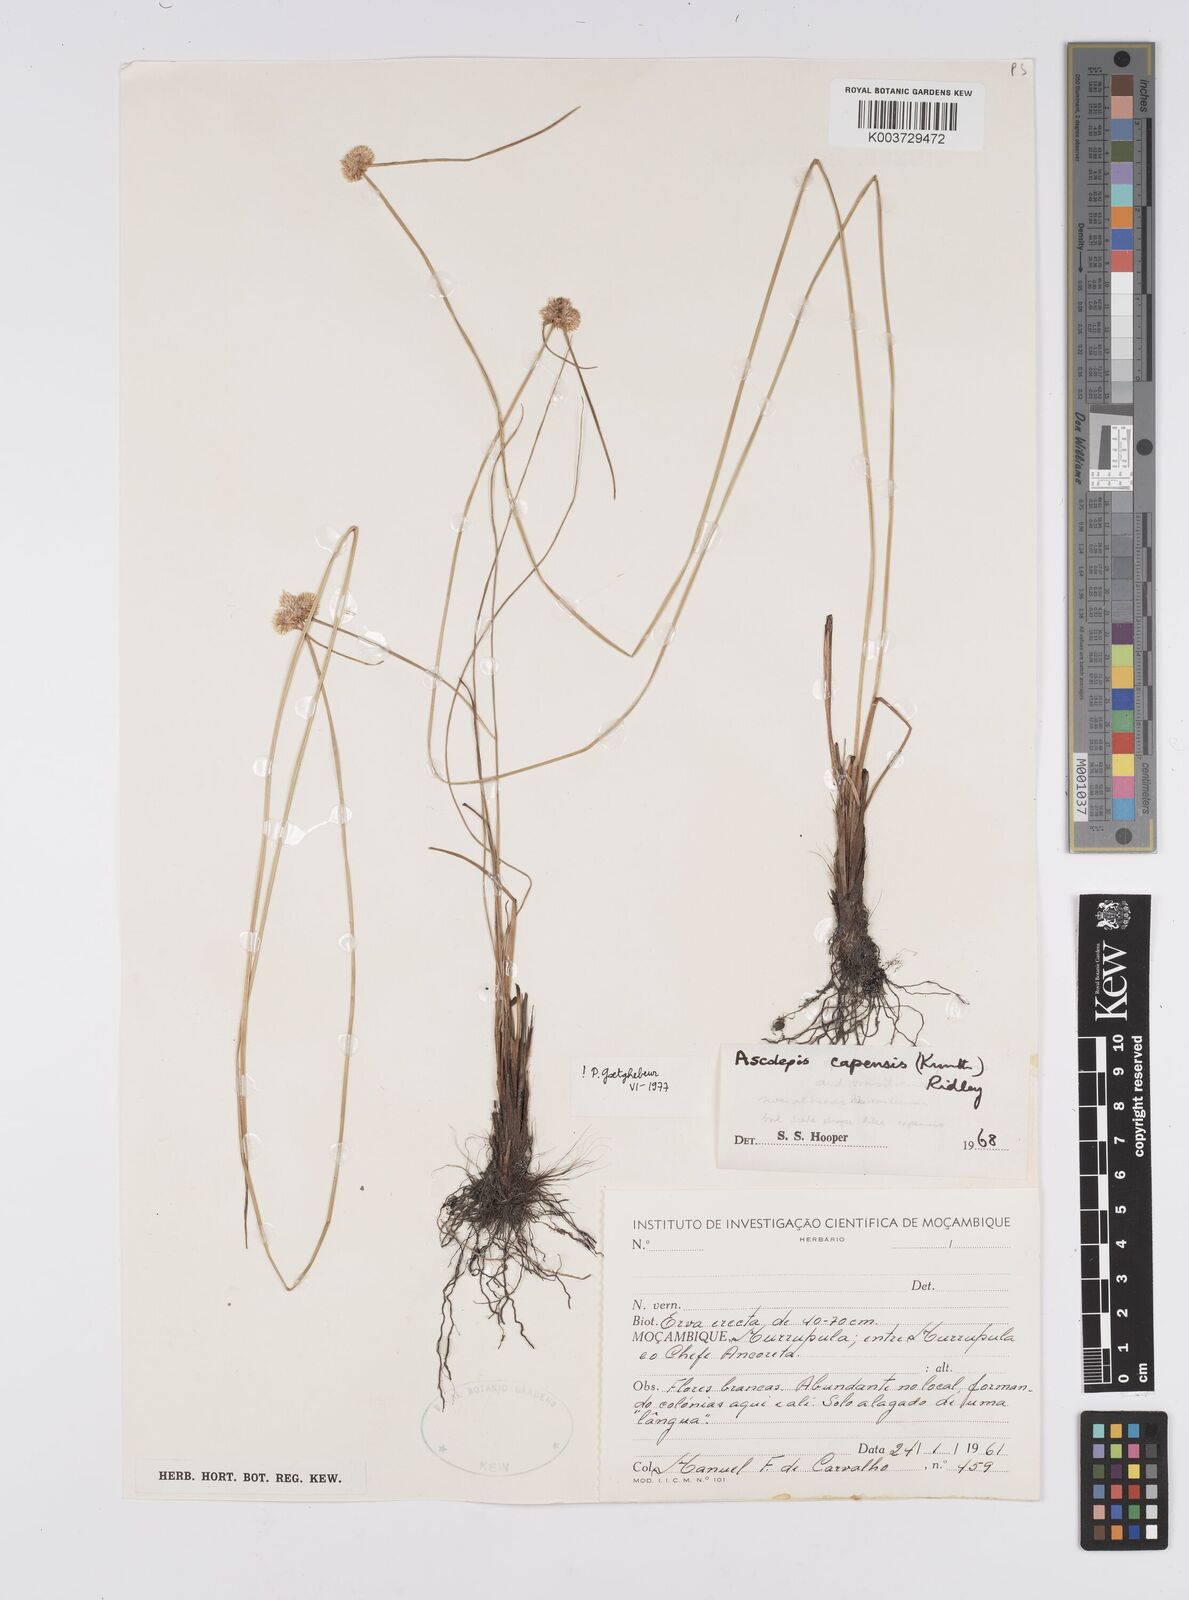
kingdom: Plantae
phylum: Tracheophyta
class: Liliopsida
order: Poales
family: Cyperaceae
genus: Cyperus
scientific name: Cyperus
